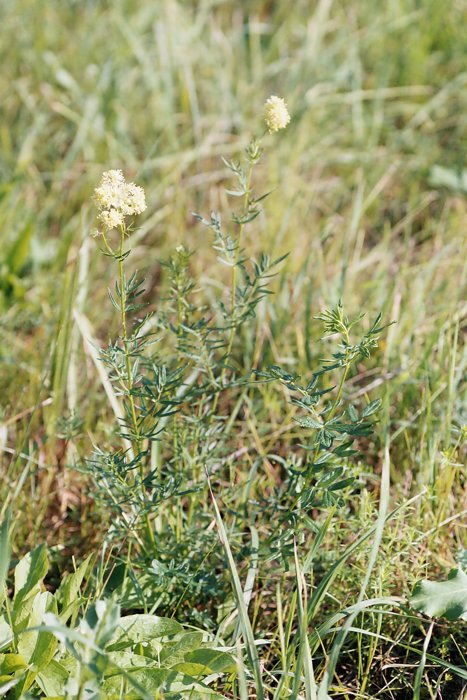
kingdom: Plantae
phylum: Tracheophyta
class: Magnoliopsida
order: Ranunculales
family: Ranunculaceae
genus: Thalictrum
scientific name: Thalictrum
